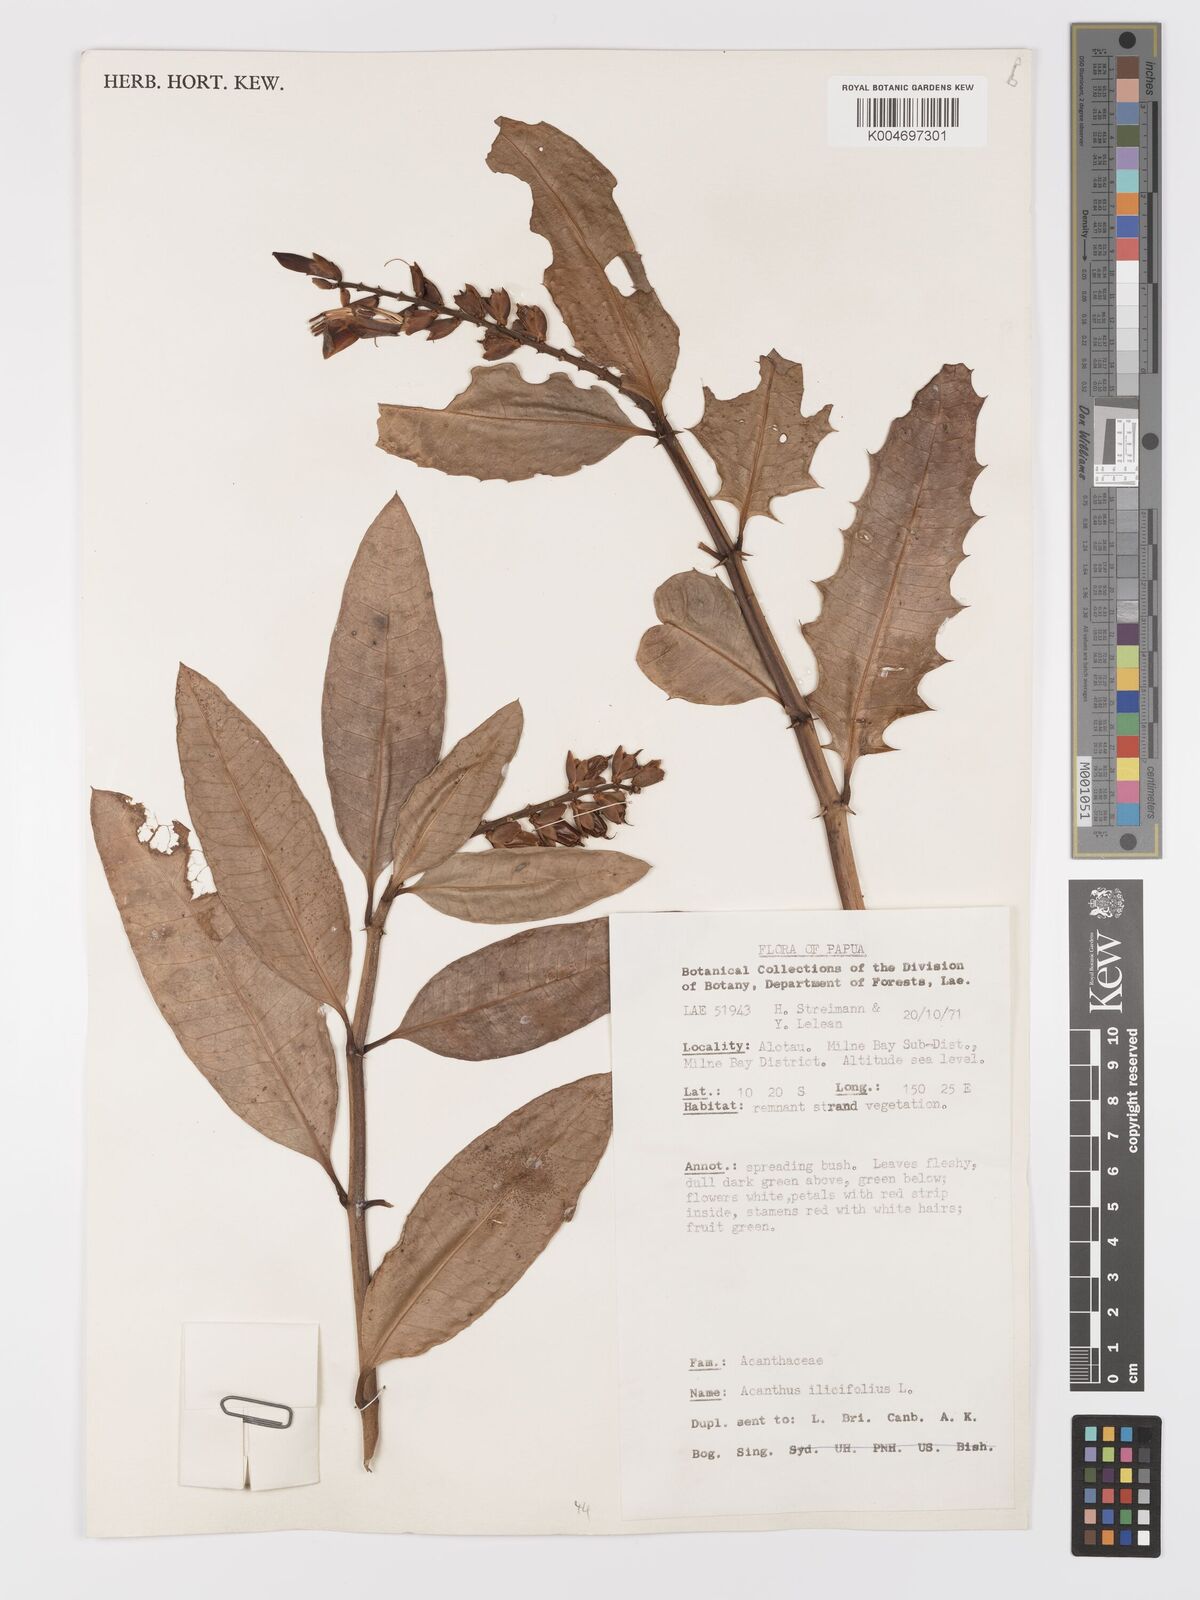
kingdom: Plantae
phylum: Tracheophyta
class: Magnoliopsida
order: Lamiales
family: Acanthaceae
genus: Acanthus
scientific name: Acanthus ilicifolius
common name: Holy mangrove
